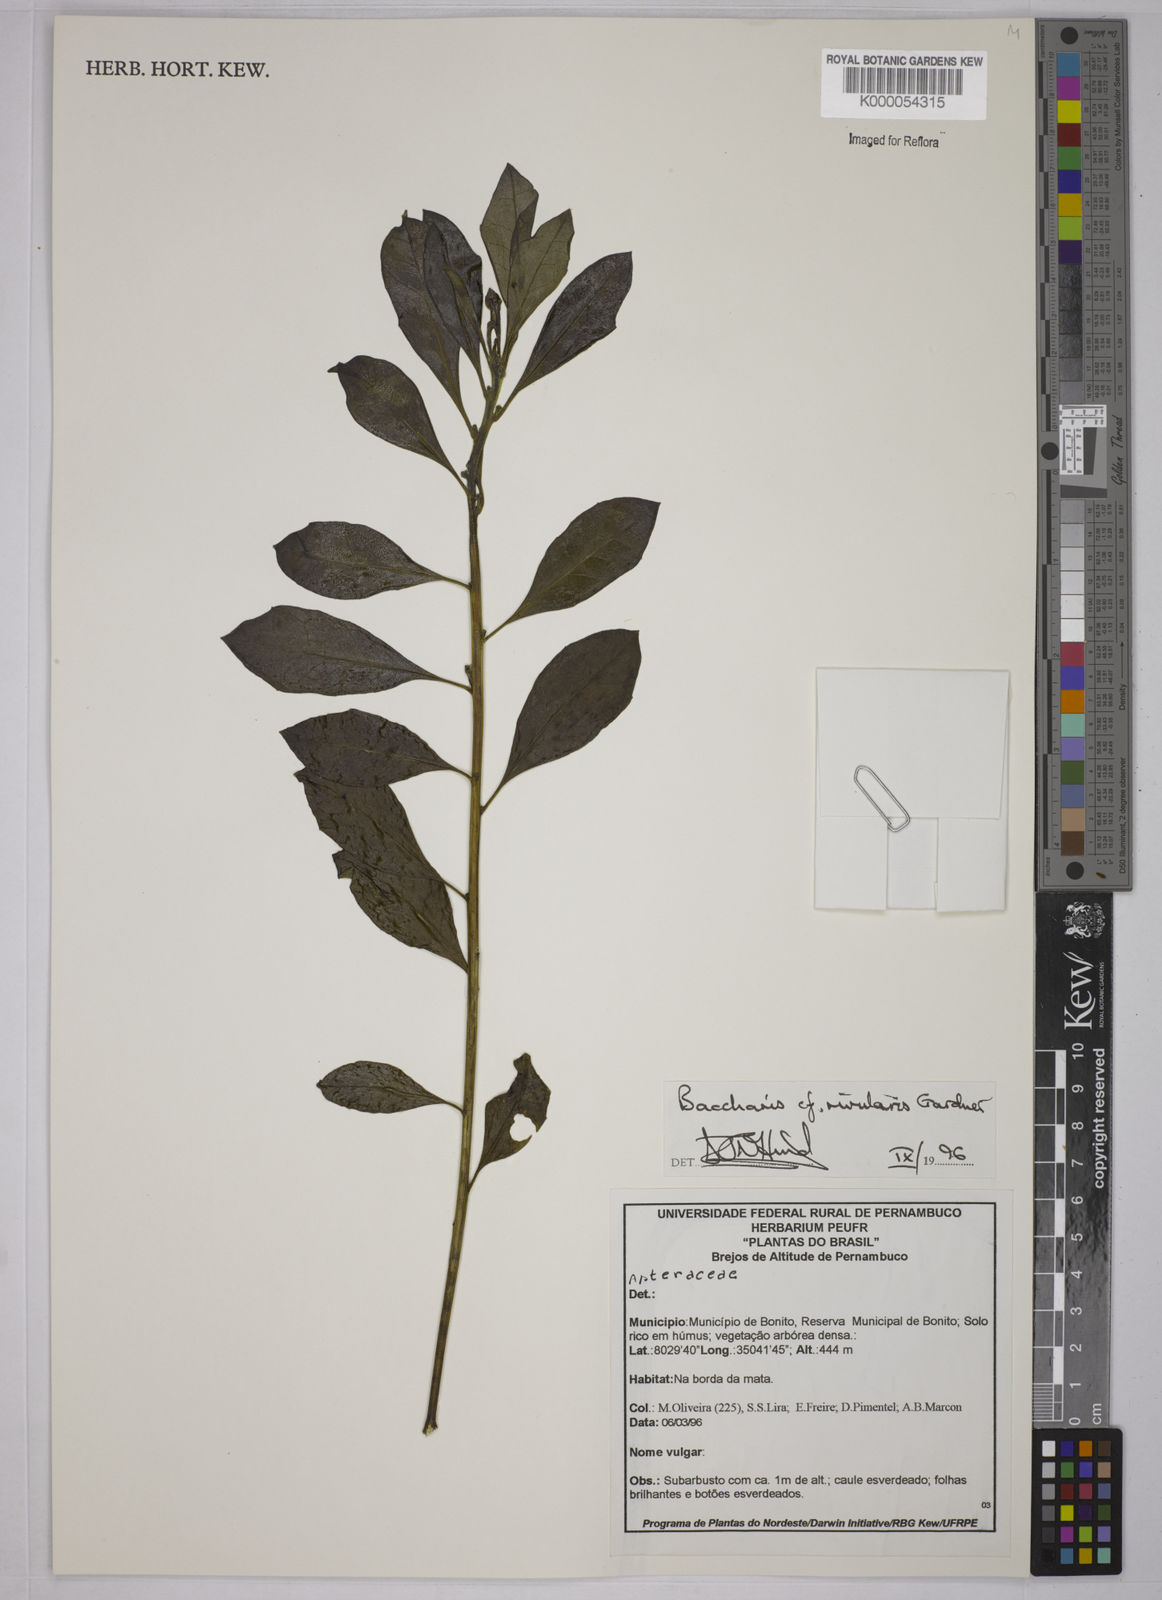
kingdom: Plantae
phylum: Tracheophyta
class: Magnoliopsida
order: Asterales
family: Asteraceae
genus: Baccharis
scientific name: Baccharis rivularis
